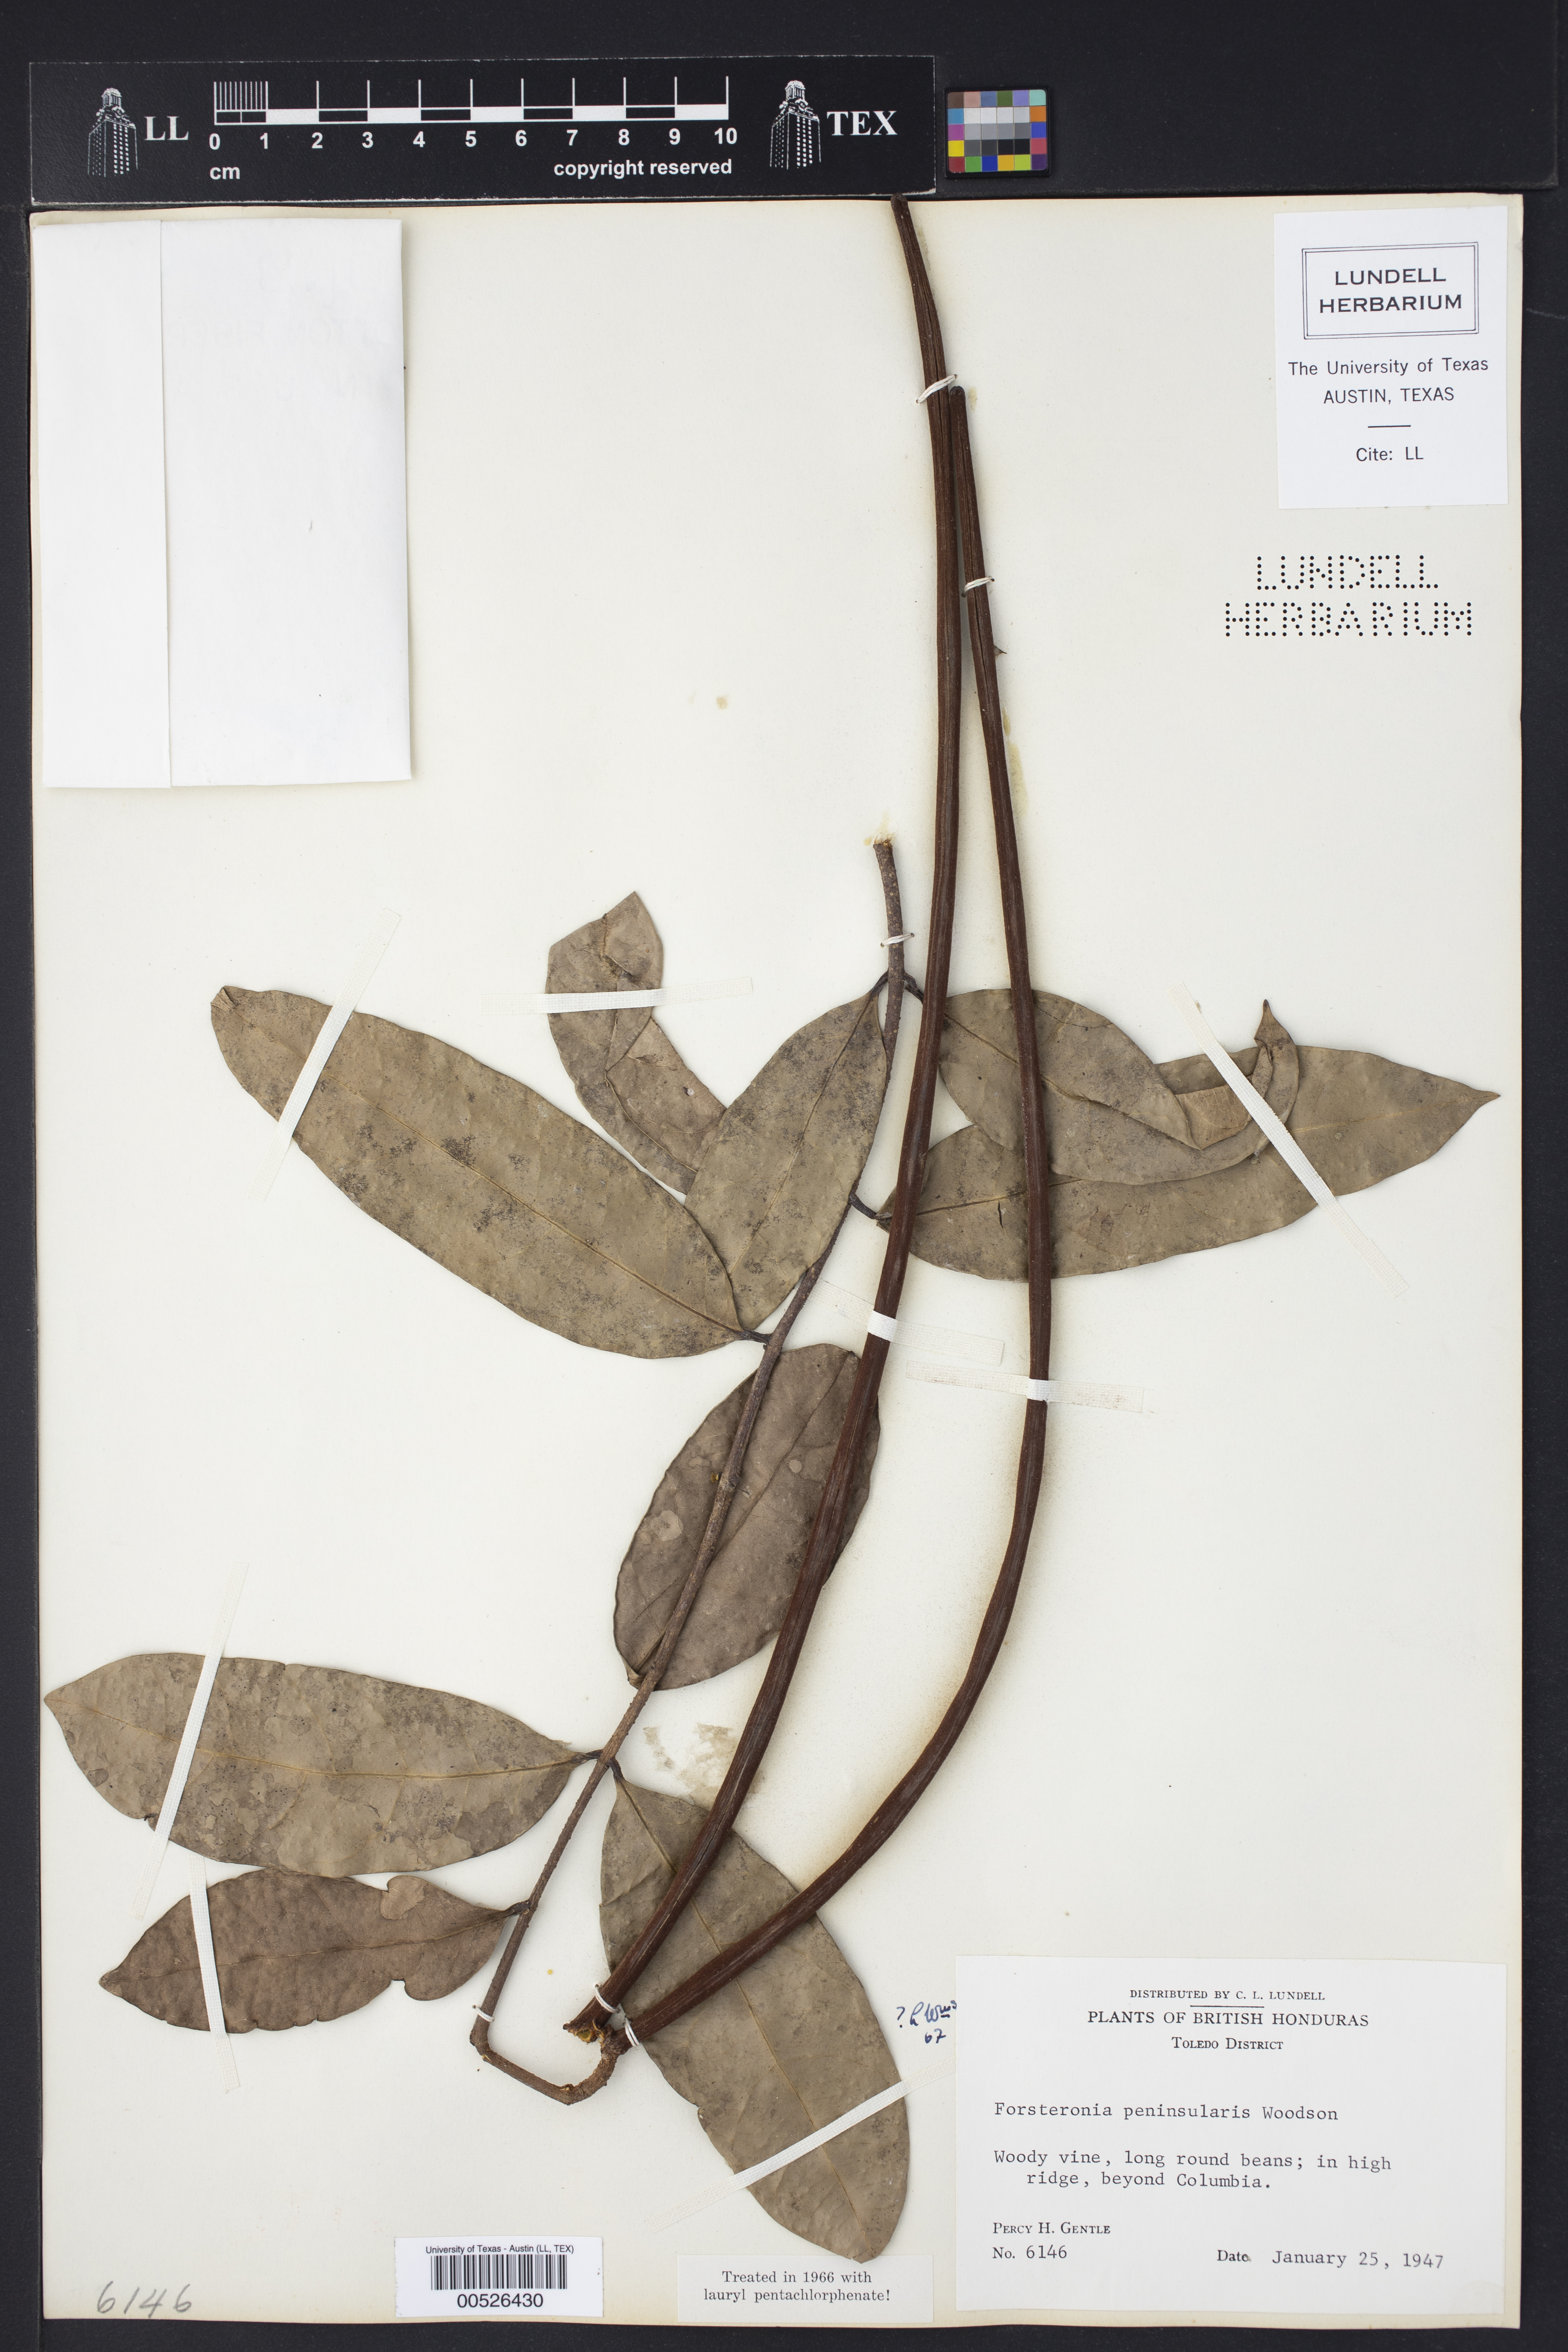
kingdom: Plantae
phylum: Tracheophyta
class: Magnoliopsida
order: Gentianales
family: Apocynaceae
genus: Pinochia
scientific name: Pinochia peninsularis
